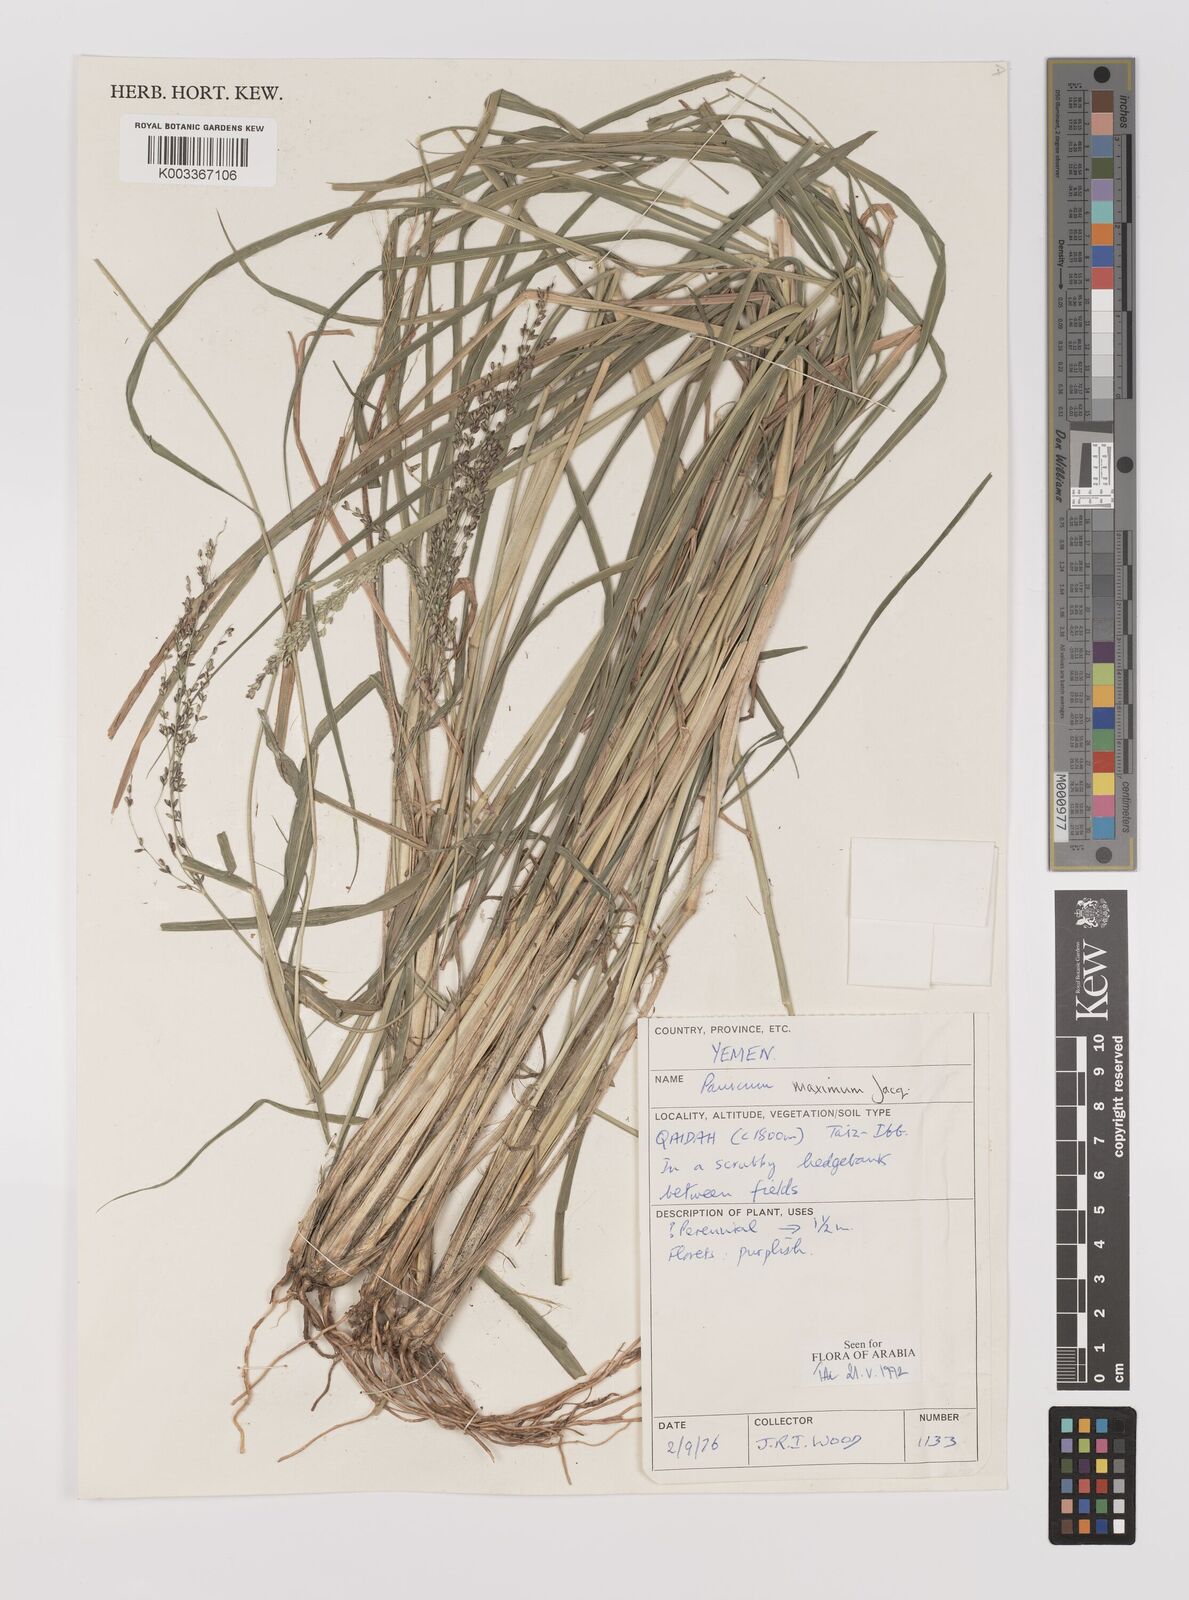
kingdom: Plantae
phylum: Tracheophyta
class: Liliopsida
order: Poales
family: Poaceae
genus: Megathyrsus
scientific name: Megathyrsus maximus
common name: Guineagrass
